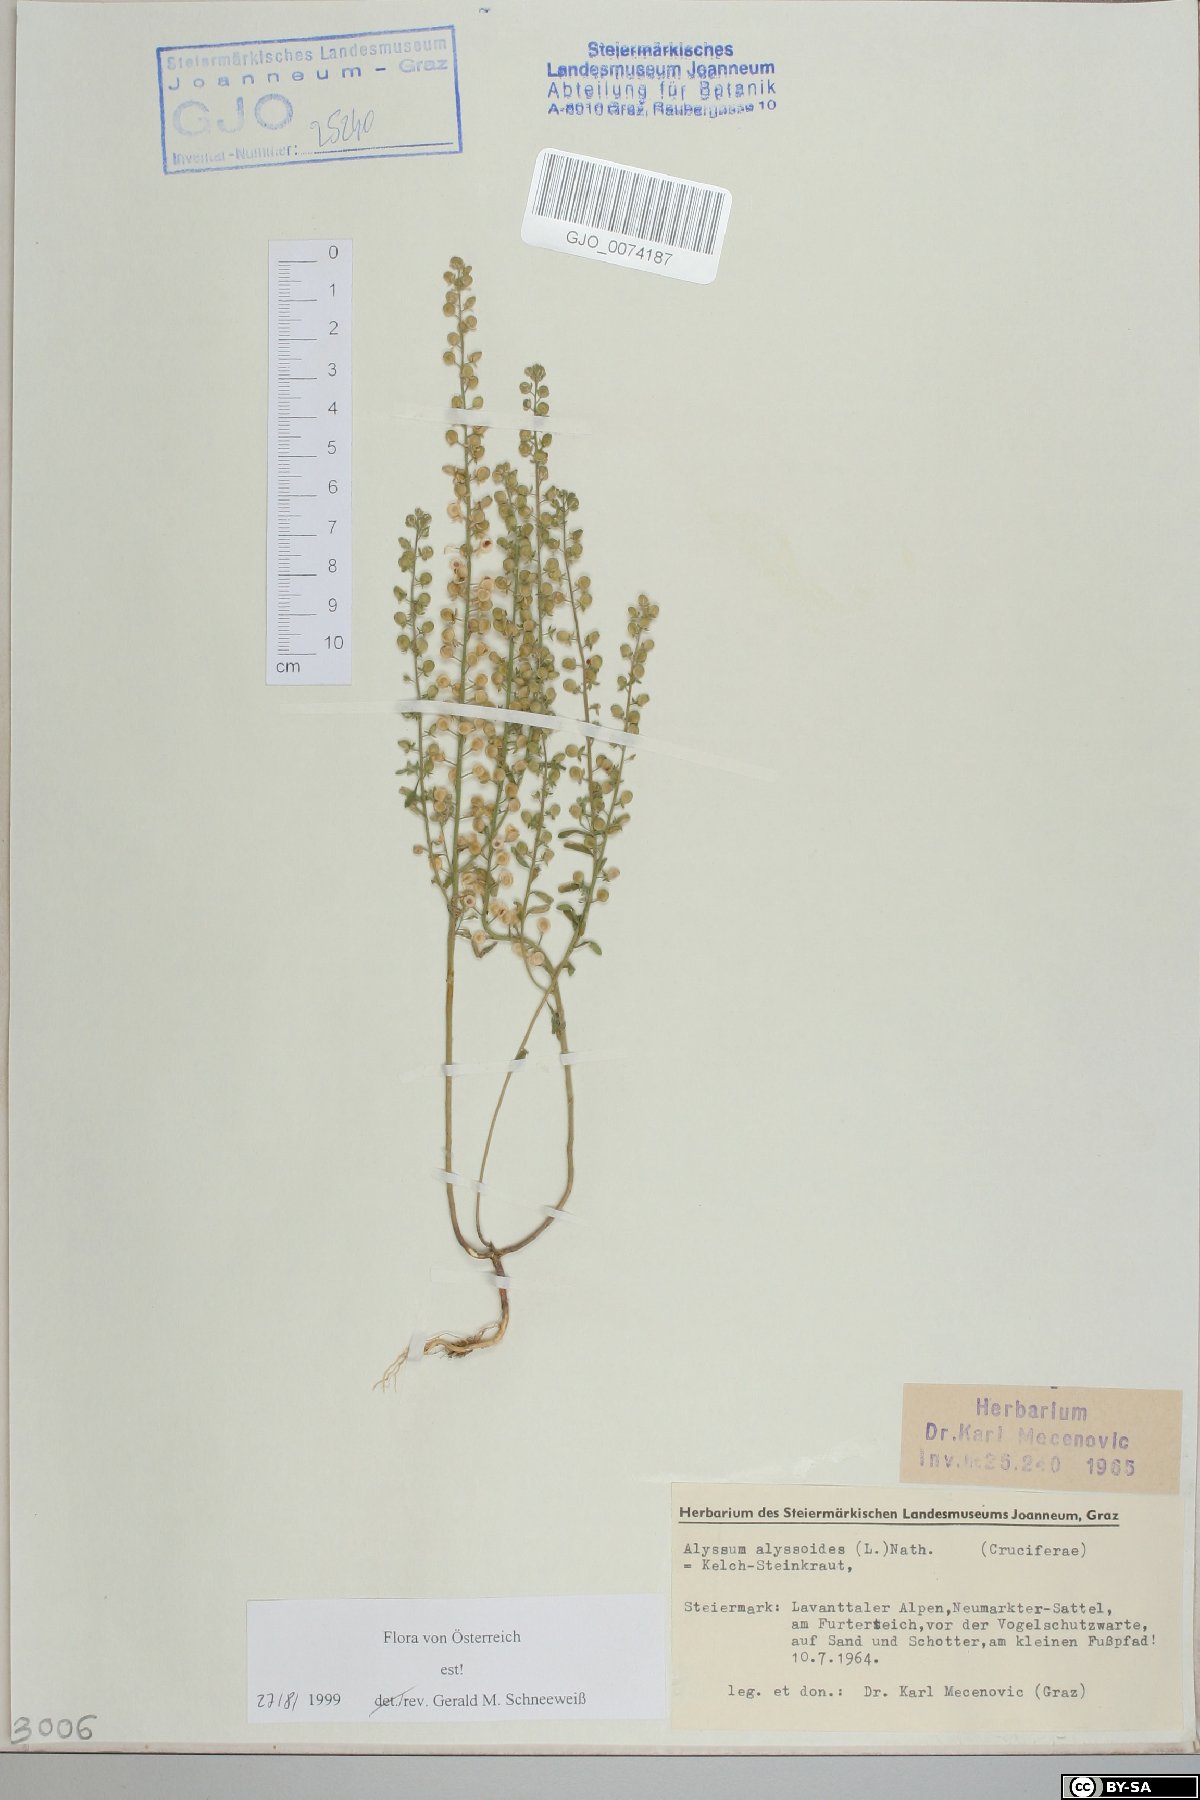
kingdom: Plantae
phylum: Tracheophyta
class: Magnoliopsida
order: Brassicales
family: Brassicaceae
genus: Alyssum
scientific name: Alyssum alyssoides
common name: Small alison
